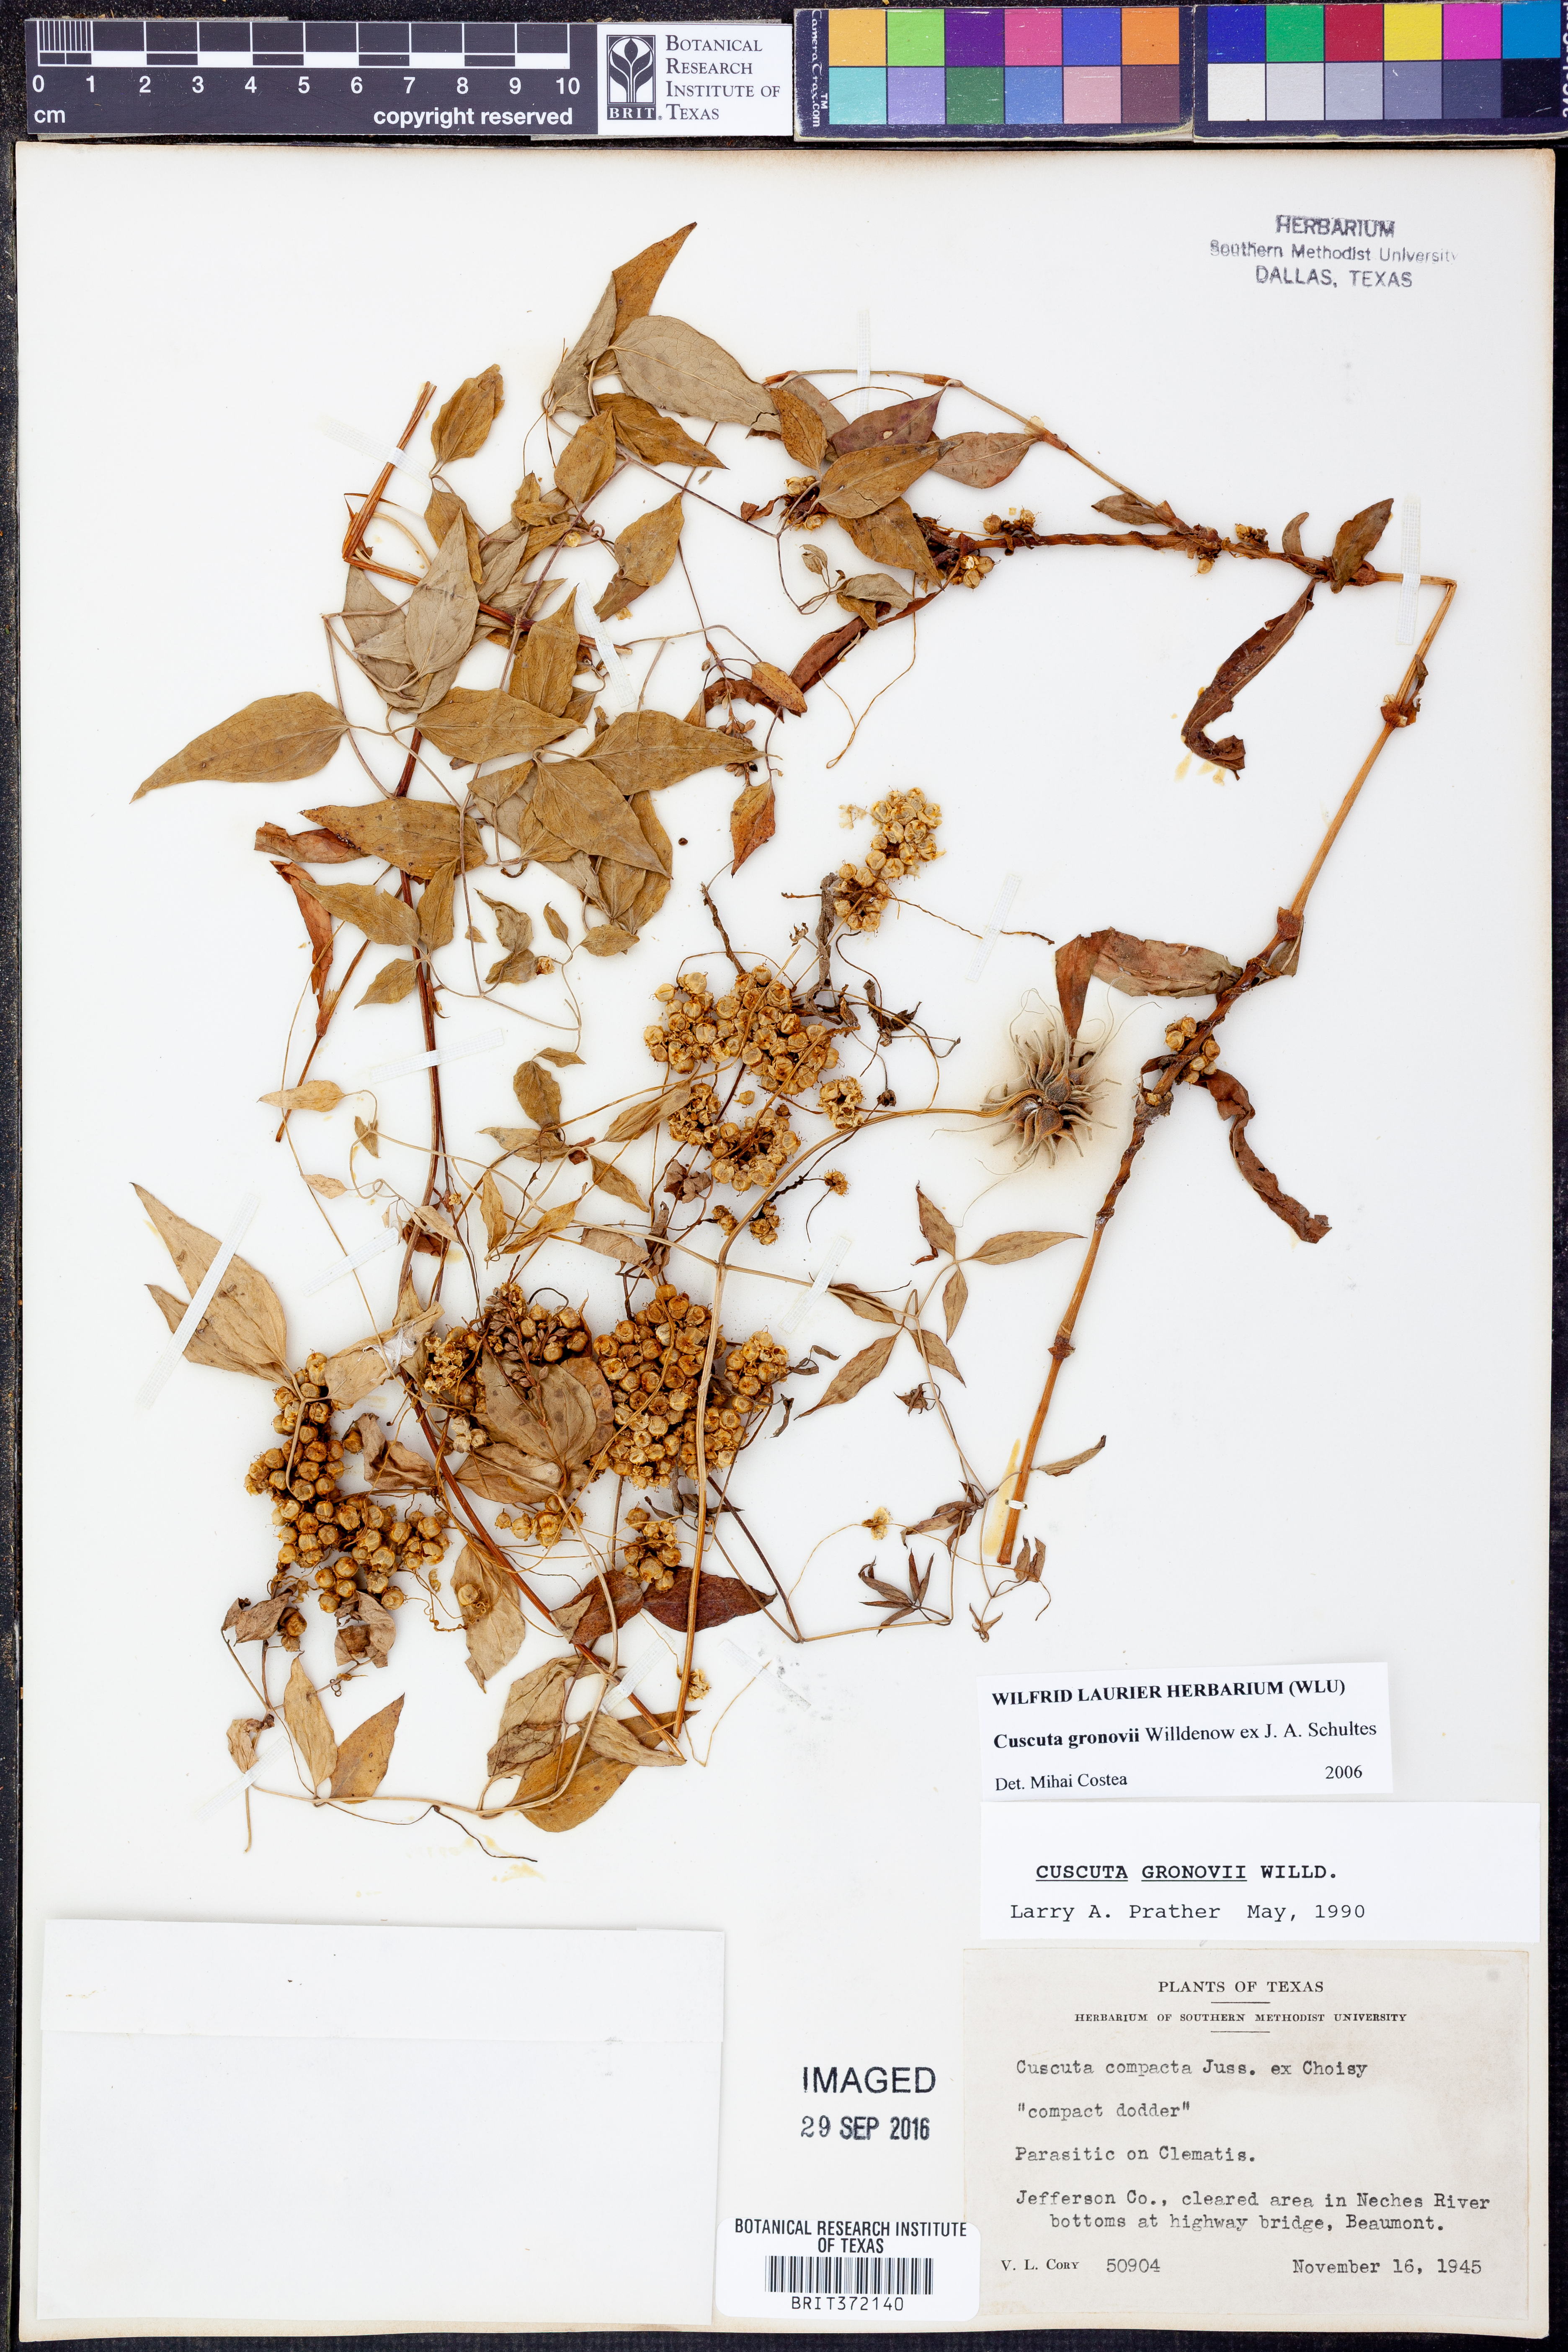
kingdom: Plantae
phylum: Tracheophyta
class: Magnoliopsida
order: Solanales
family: Convolvulaceae
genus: Cuscuta
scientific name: Cuscuta gronovii
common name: Common dodder
